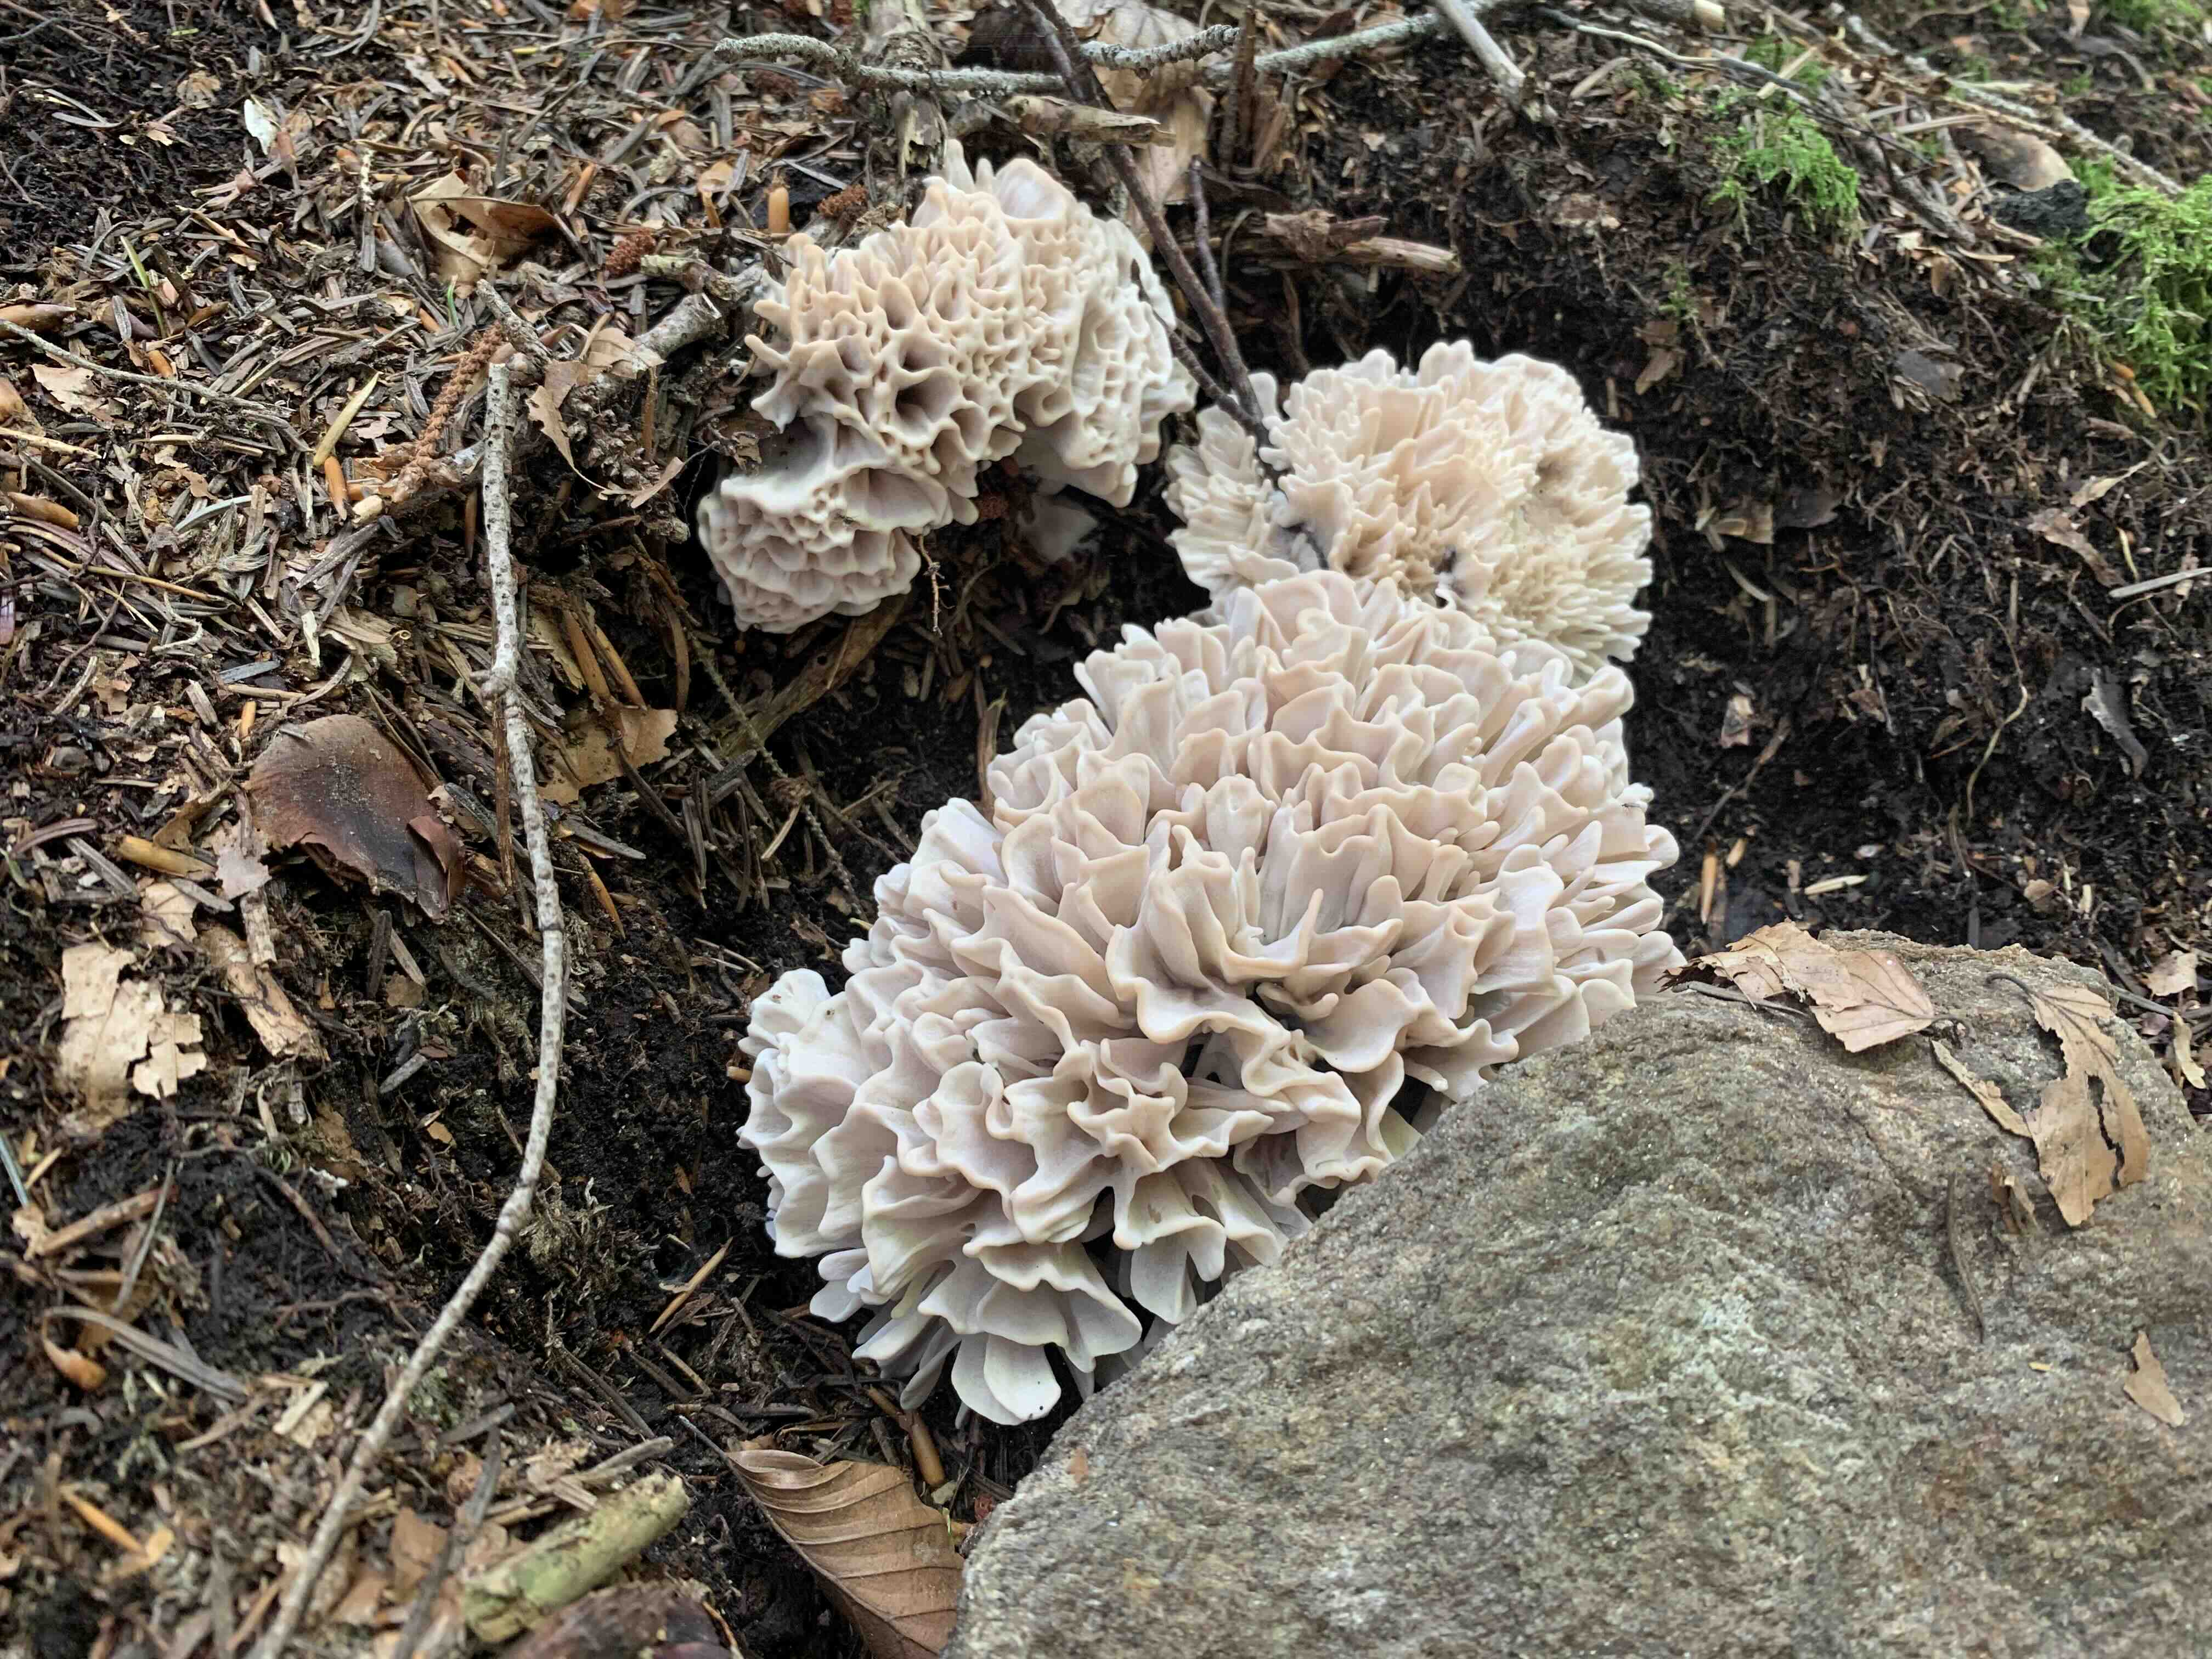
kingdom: Fungi
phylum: Basidiomycota
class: Agaricomycetes
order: Polyporales
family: Sparassidaceae
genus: Sparassis
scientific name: Sparassis brevipes
